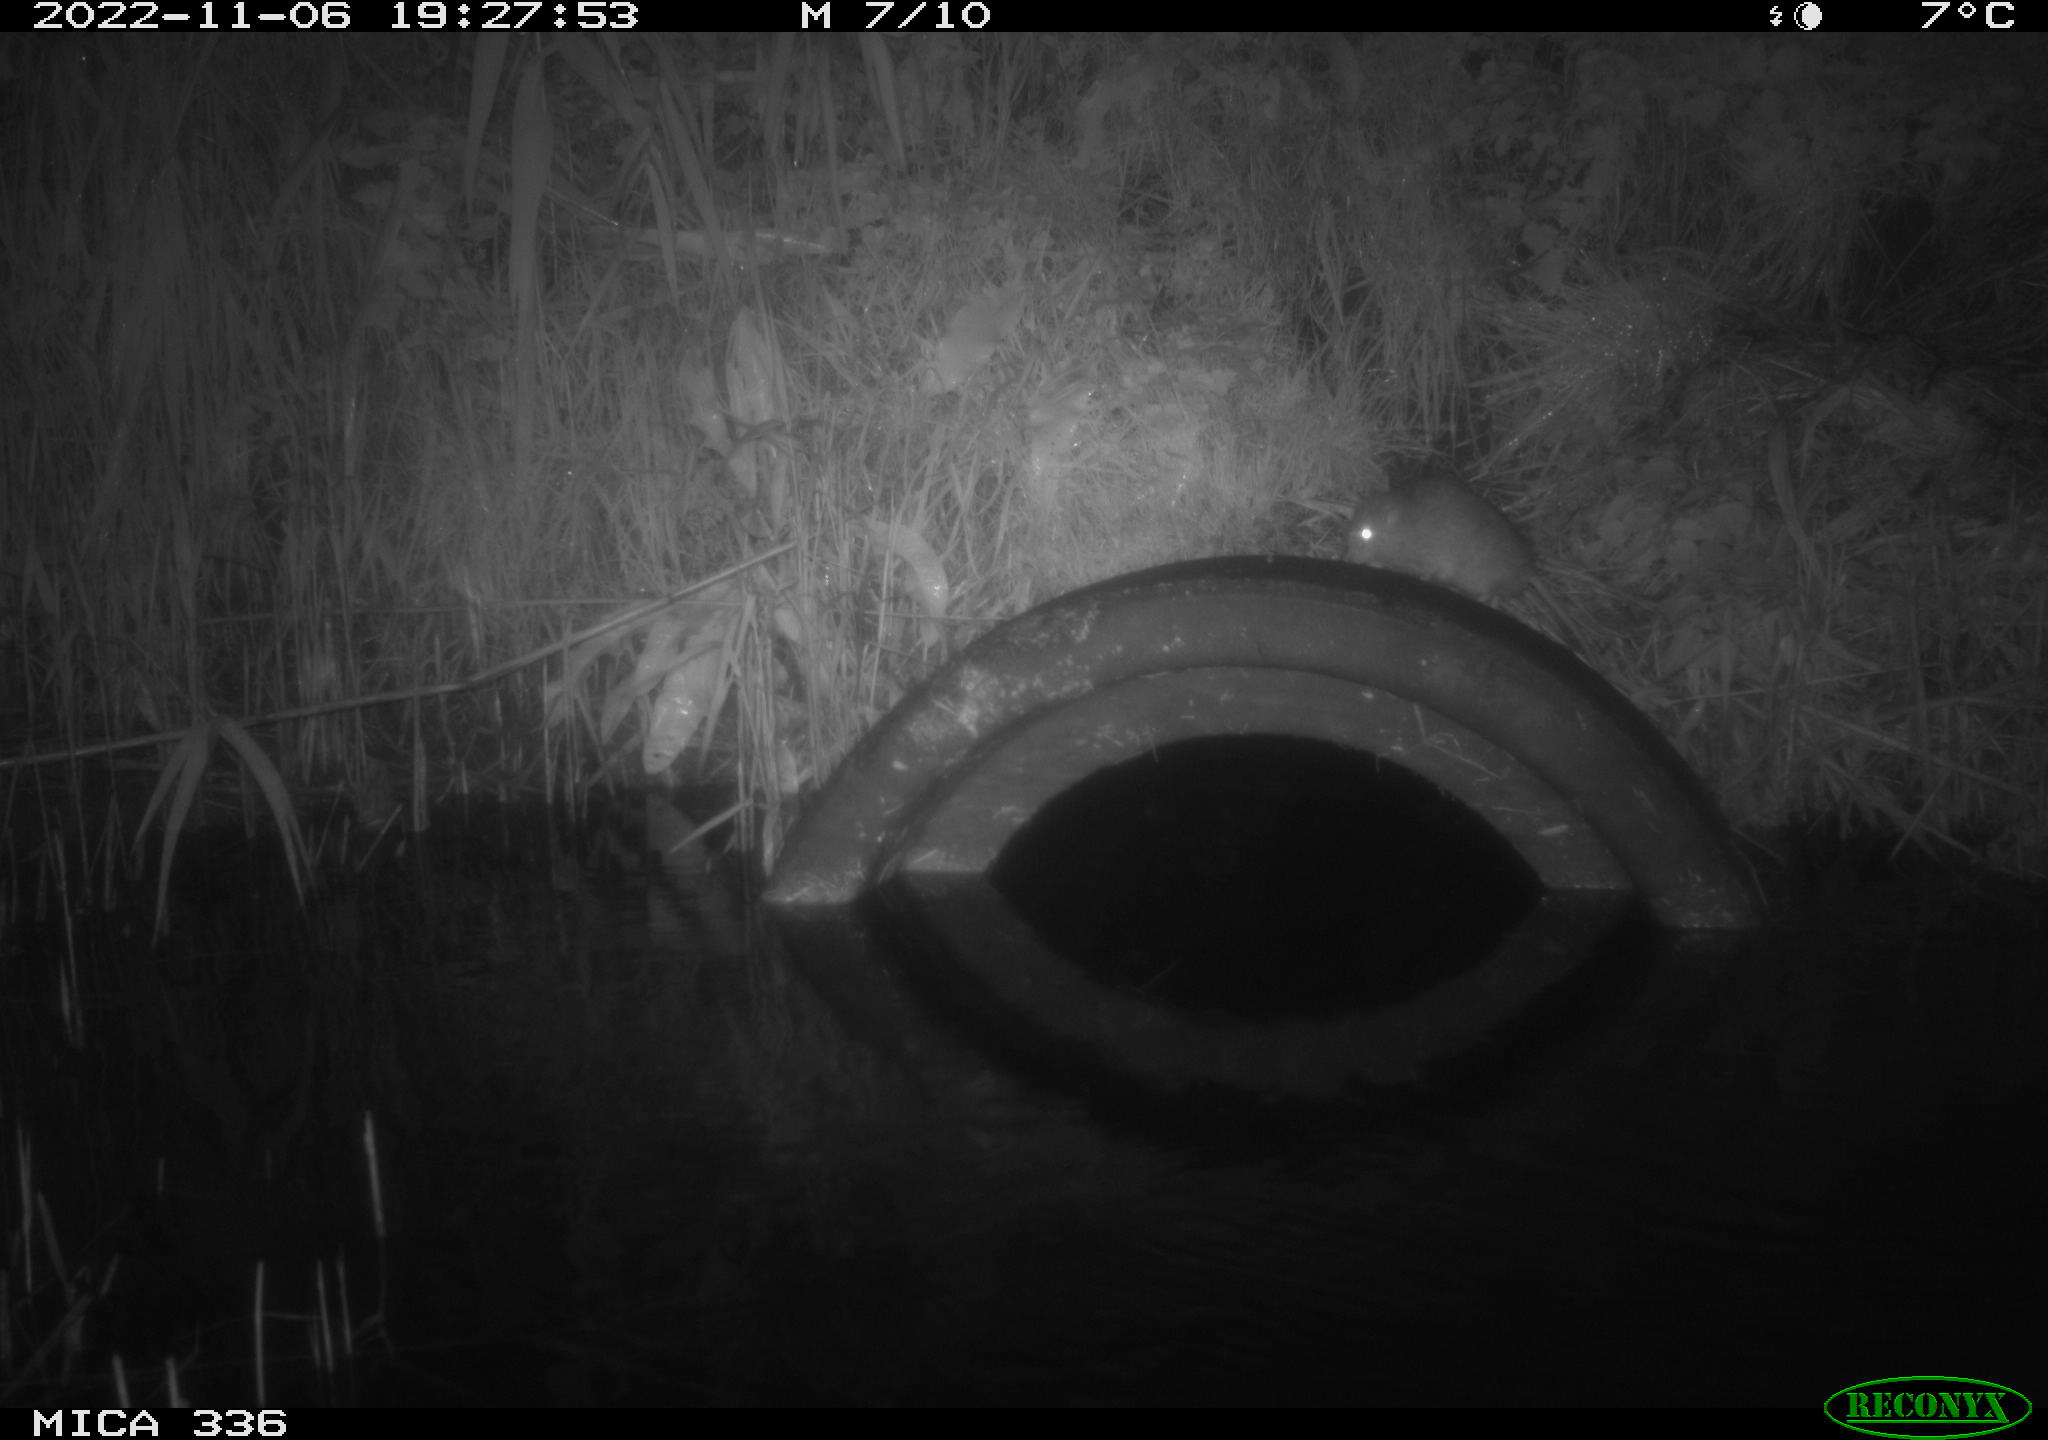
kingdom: Animalia
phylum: Chordata
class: Mammalia
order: Rodentia
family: Muridae
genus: Rattus
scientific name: Rattus norvegicus
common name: Brown rat
